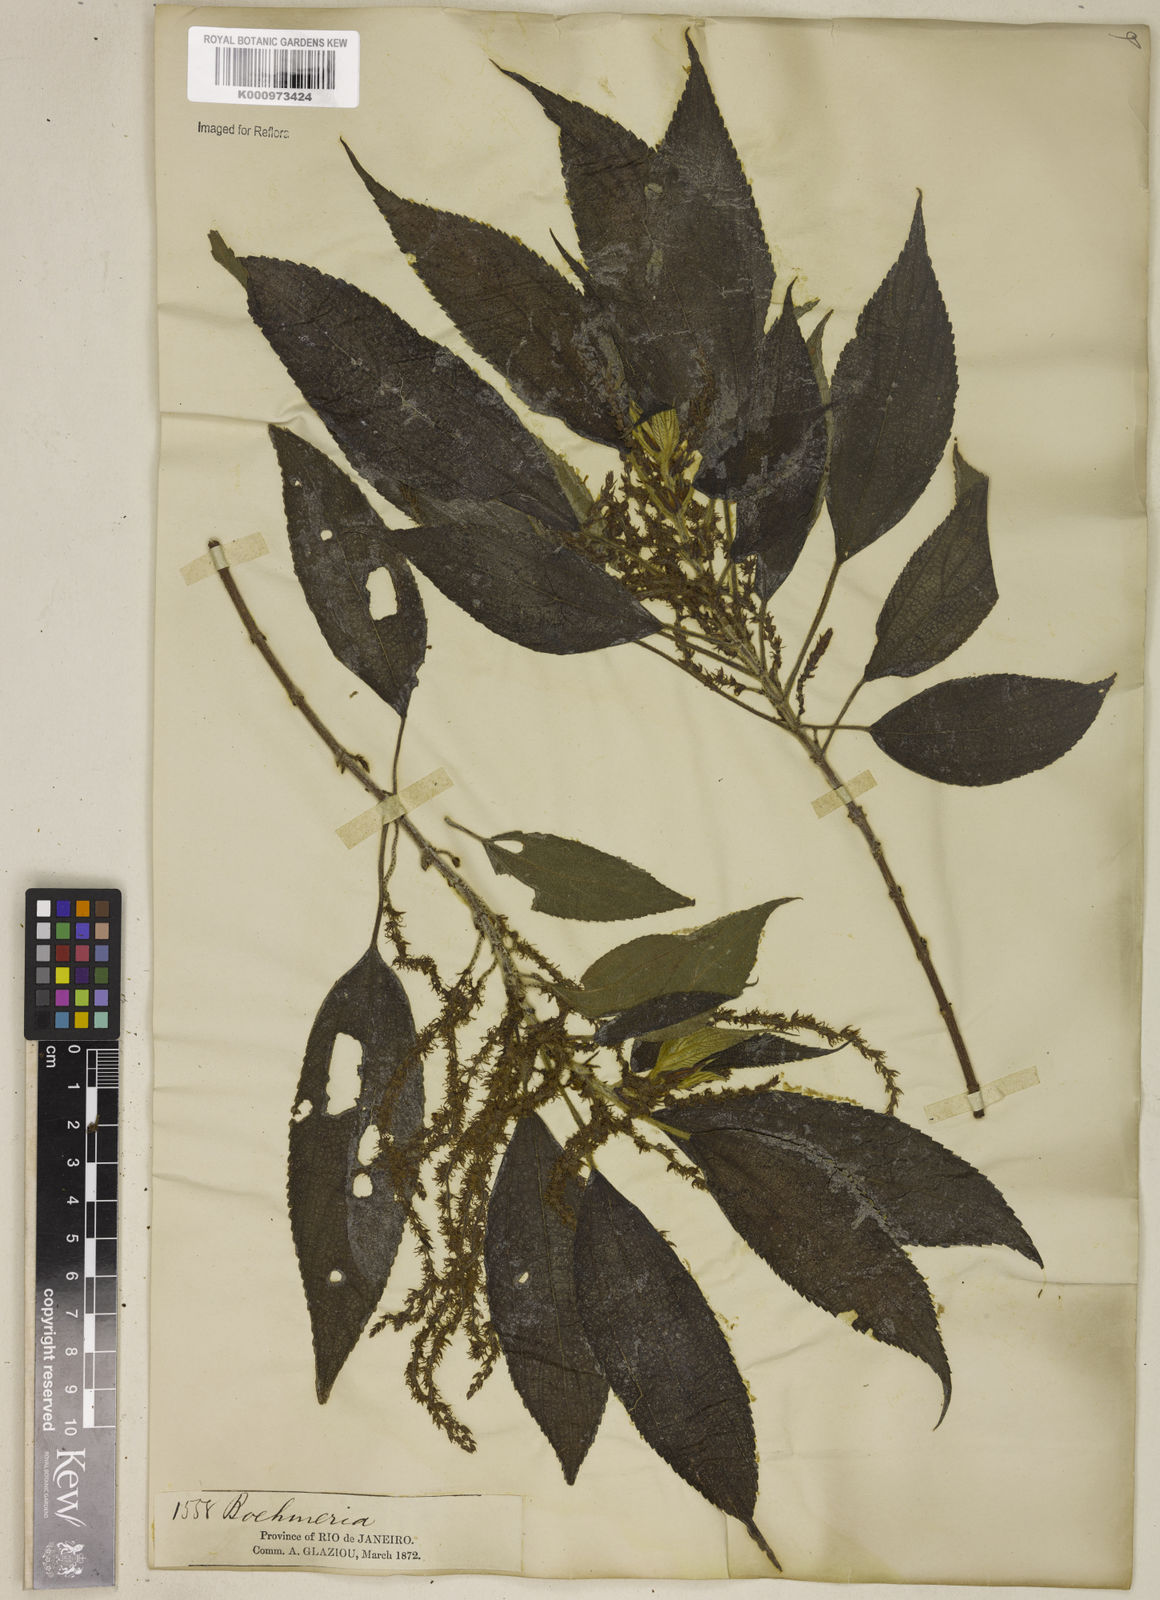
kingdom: Plantae
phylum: Tracheophyta
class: Magnoliopsida
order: Rosales
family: Urticaceae
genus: Boehmeria
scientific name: Boehmeria caudata
